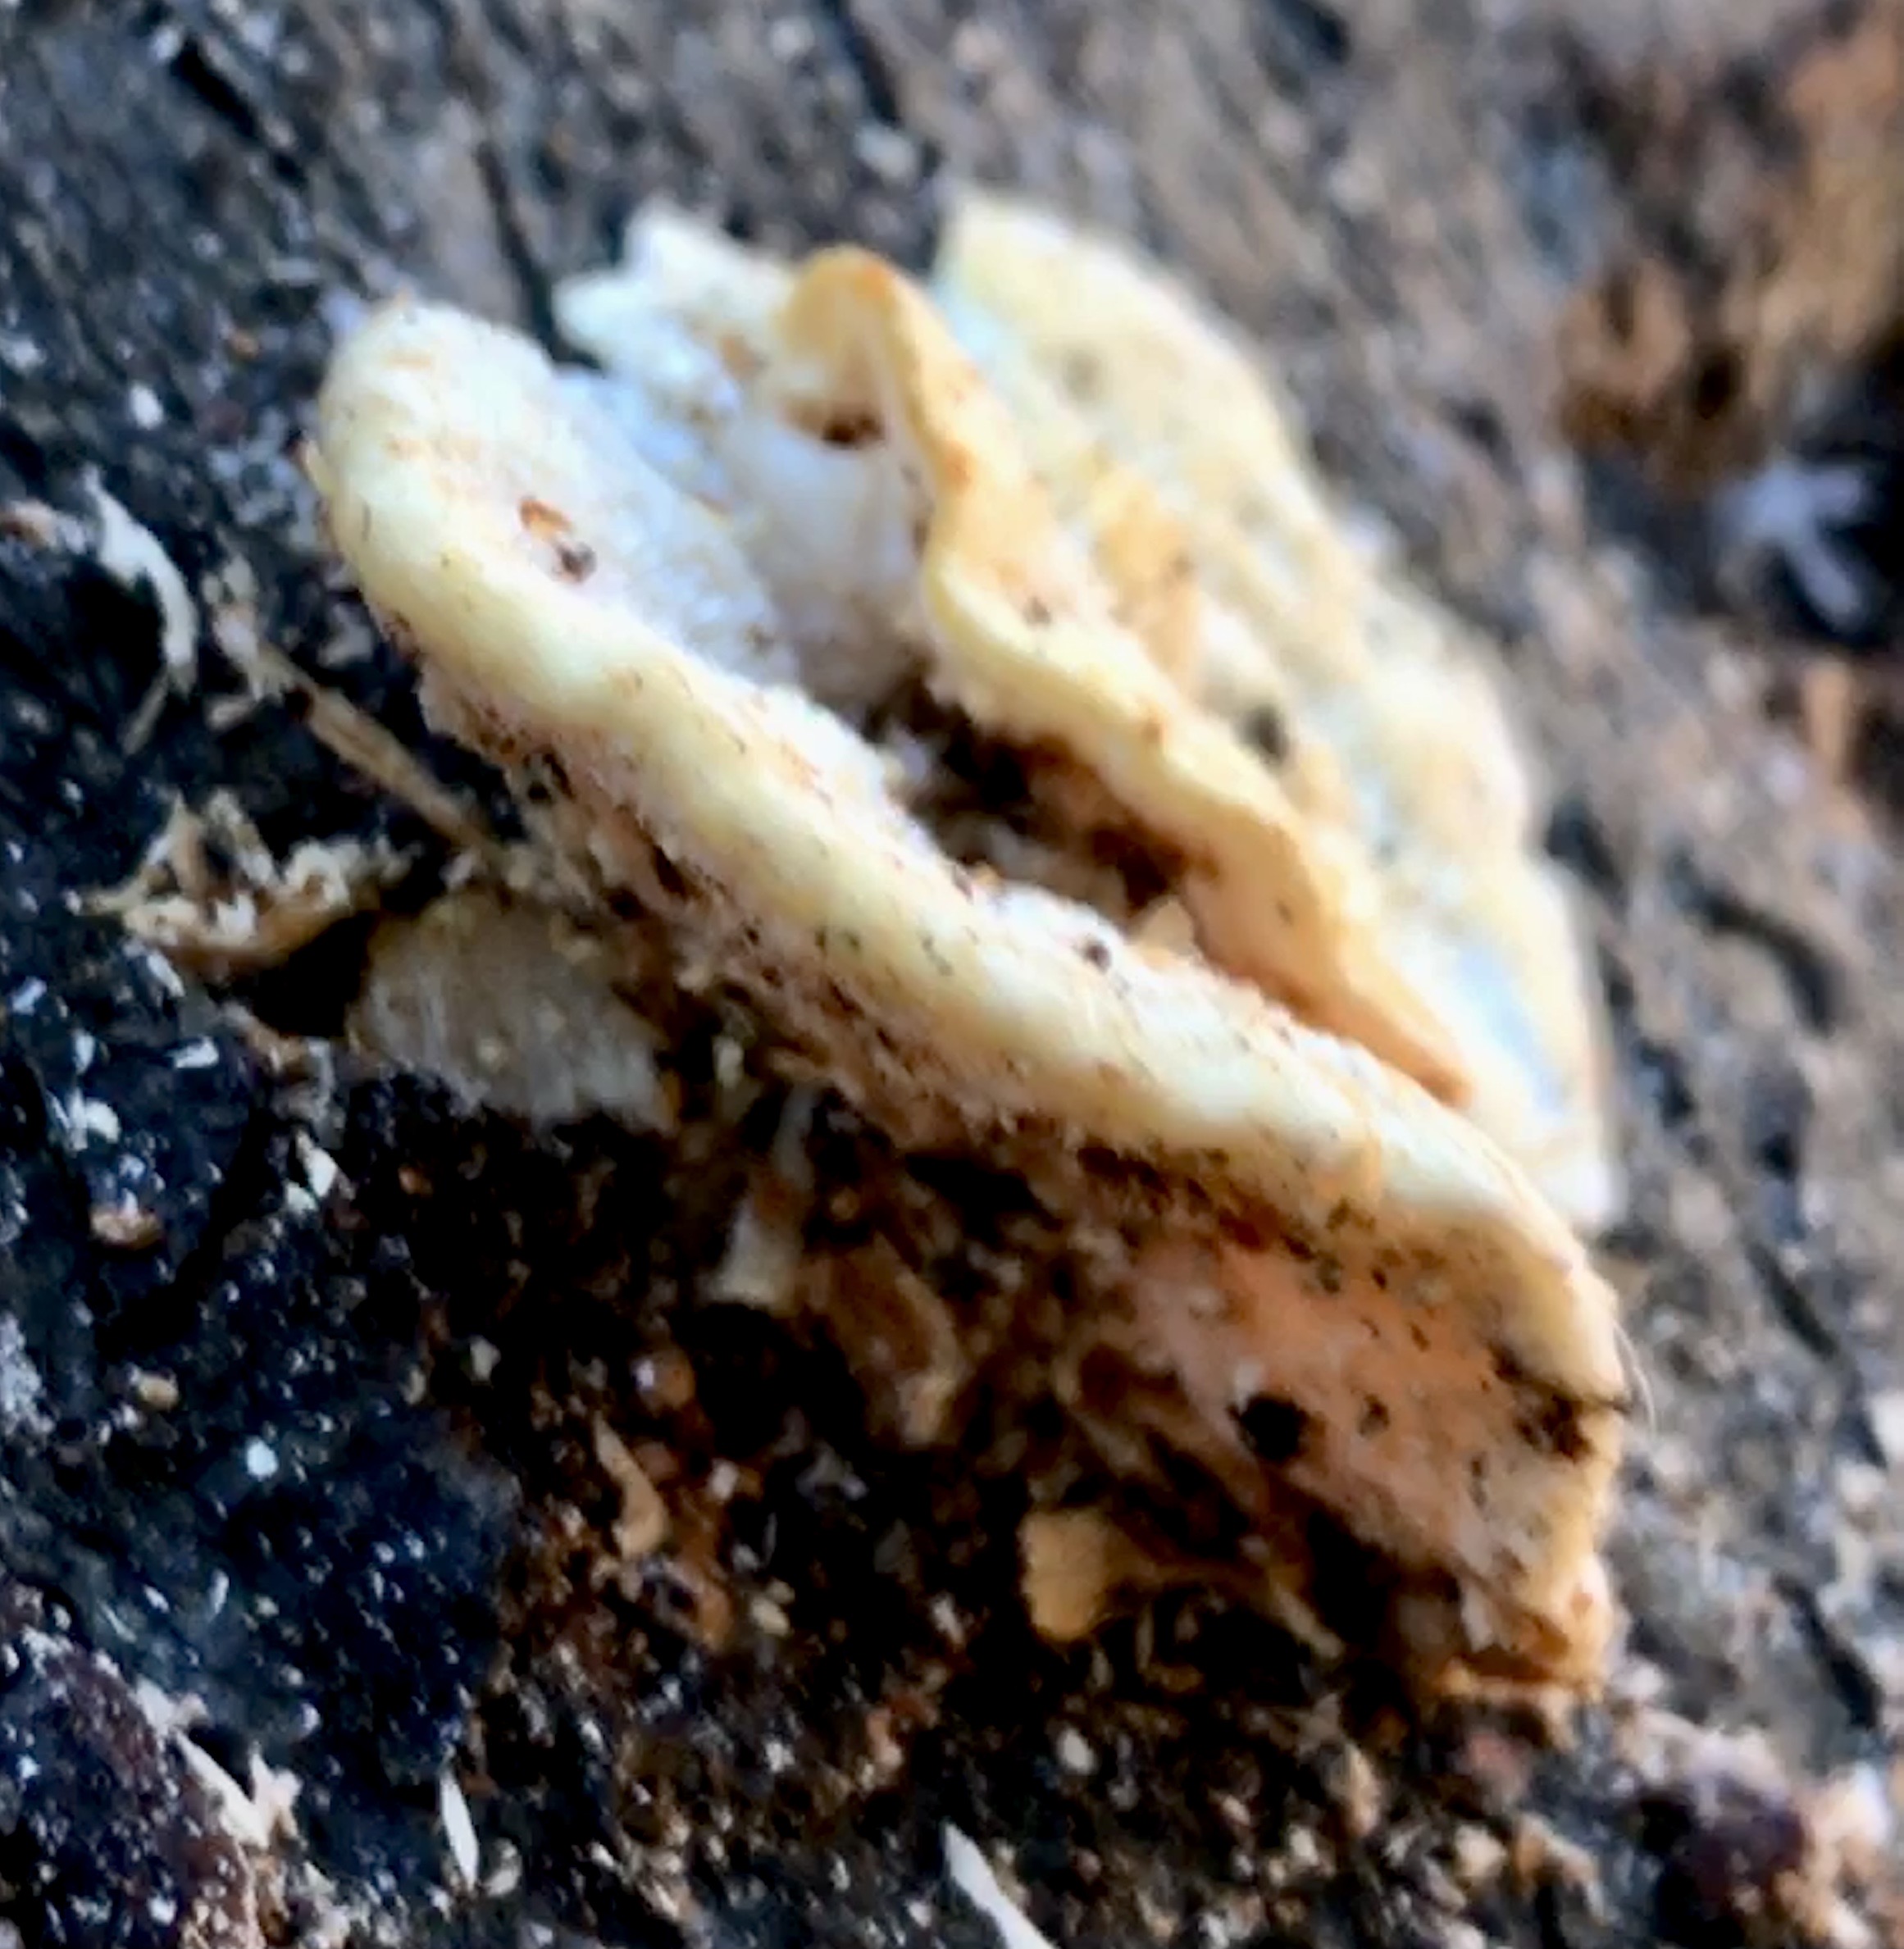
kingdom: Fungi
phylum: Basidiomycota
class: Agaricomycetes
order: Polyporales
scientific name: Polyporales
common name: poresvampordenen
